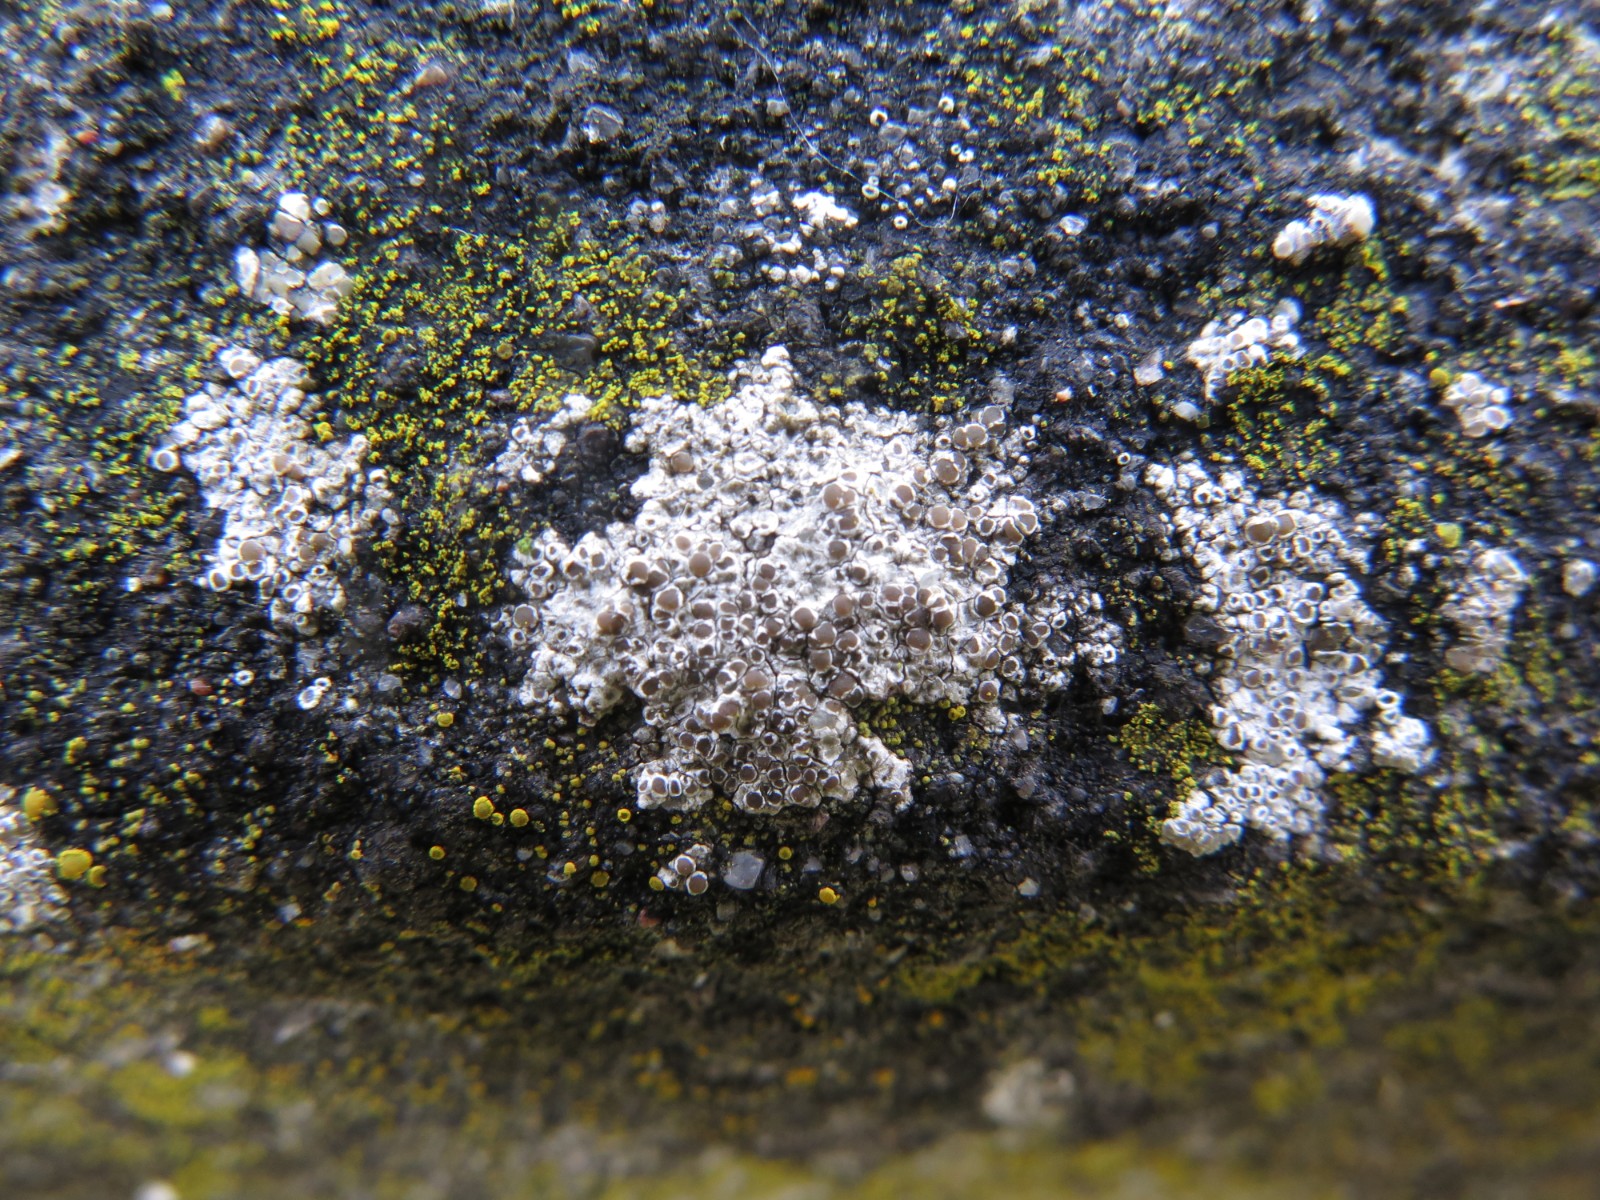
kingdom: Fungi
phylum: Ascomycota
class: Lecanoromycetes
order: Lecanorales
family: Lecanoraceae
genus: Polyozosia
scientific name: Polyozosia albescens
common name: cement-kantskivelav
